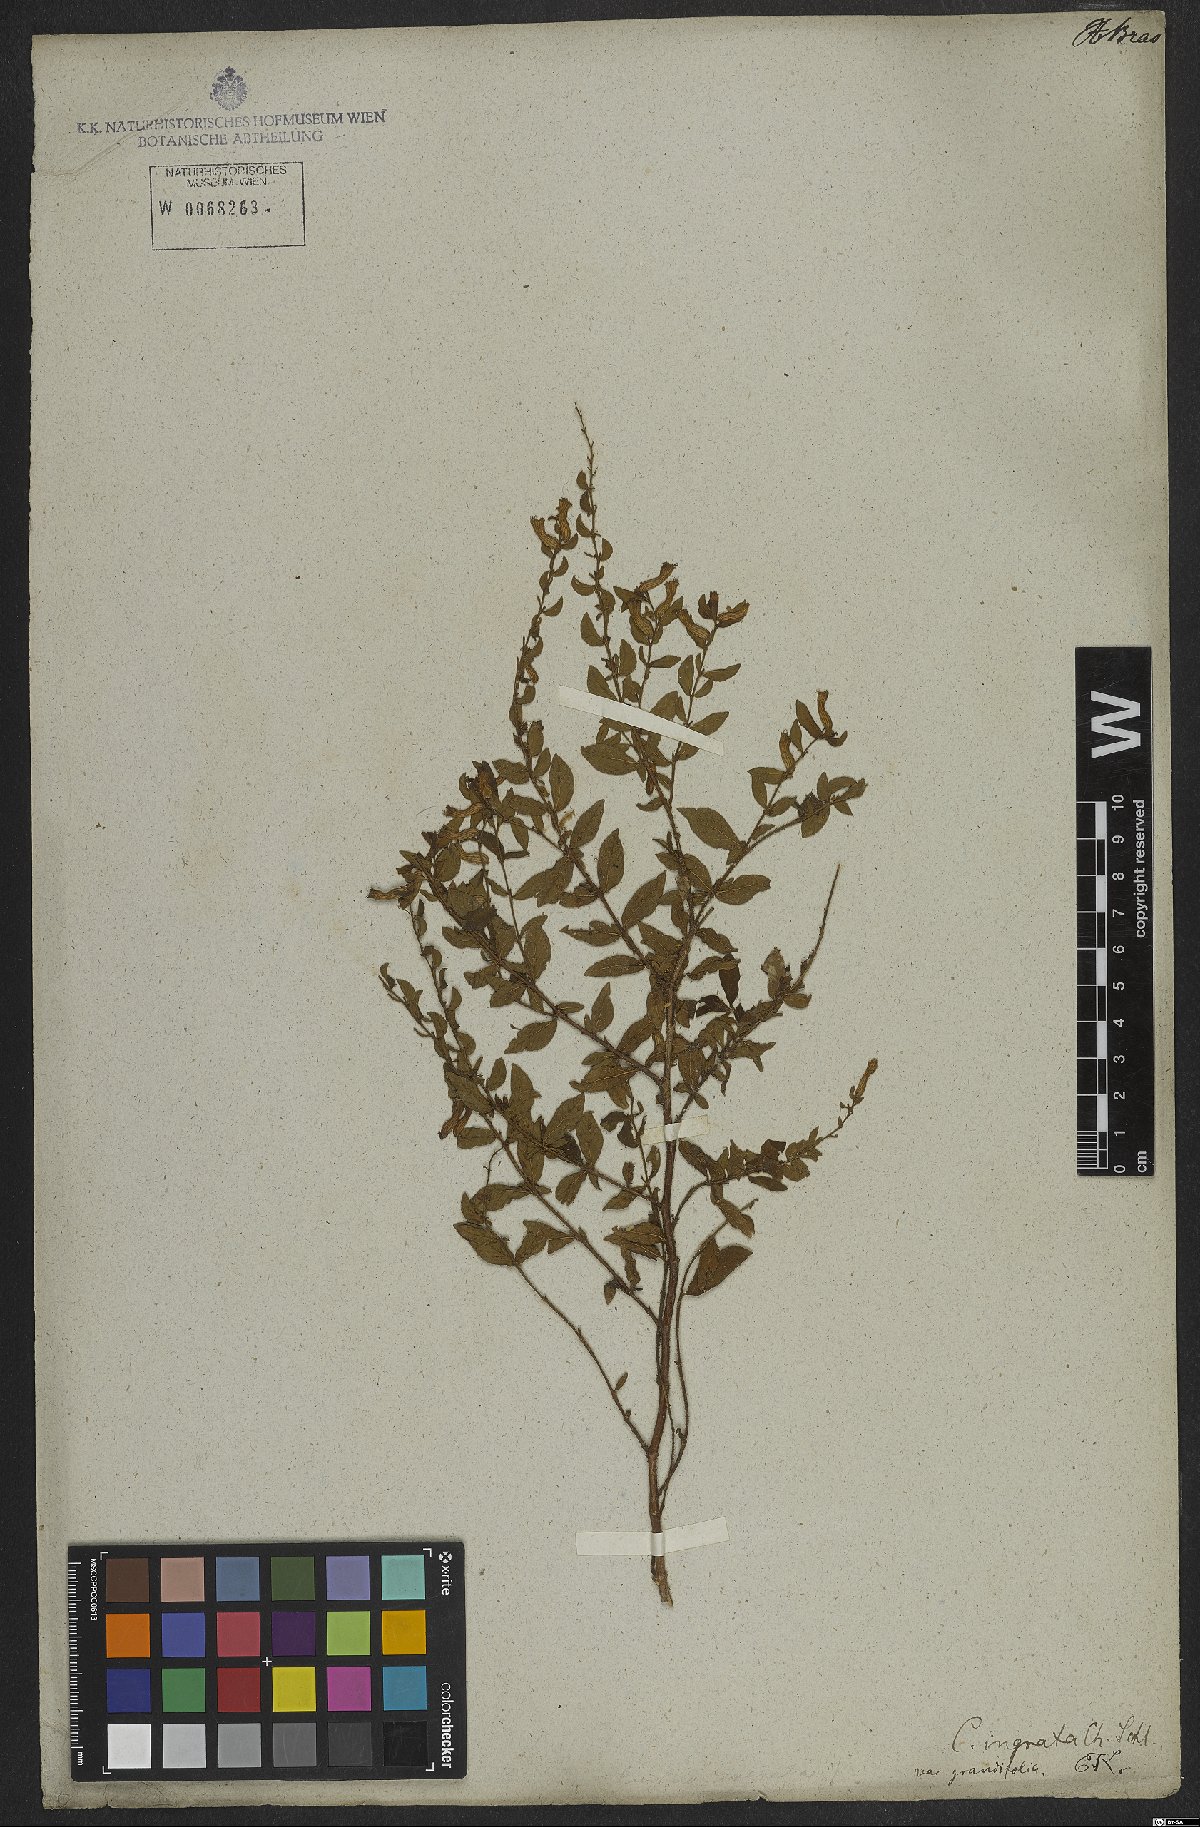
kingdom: Plantae
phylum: Tracheophyta
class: Magnoliopsida
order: Myrtales
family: Lythraceae
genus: Cuphea
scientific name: Cuphea ingrata
